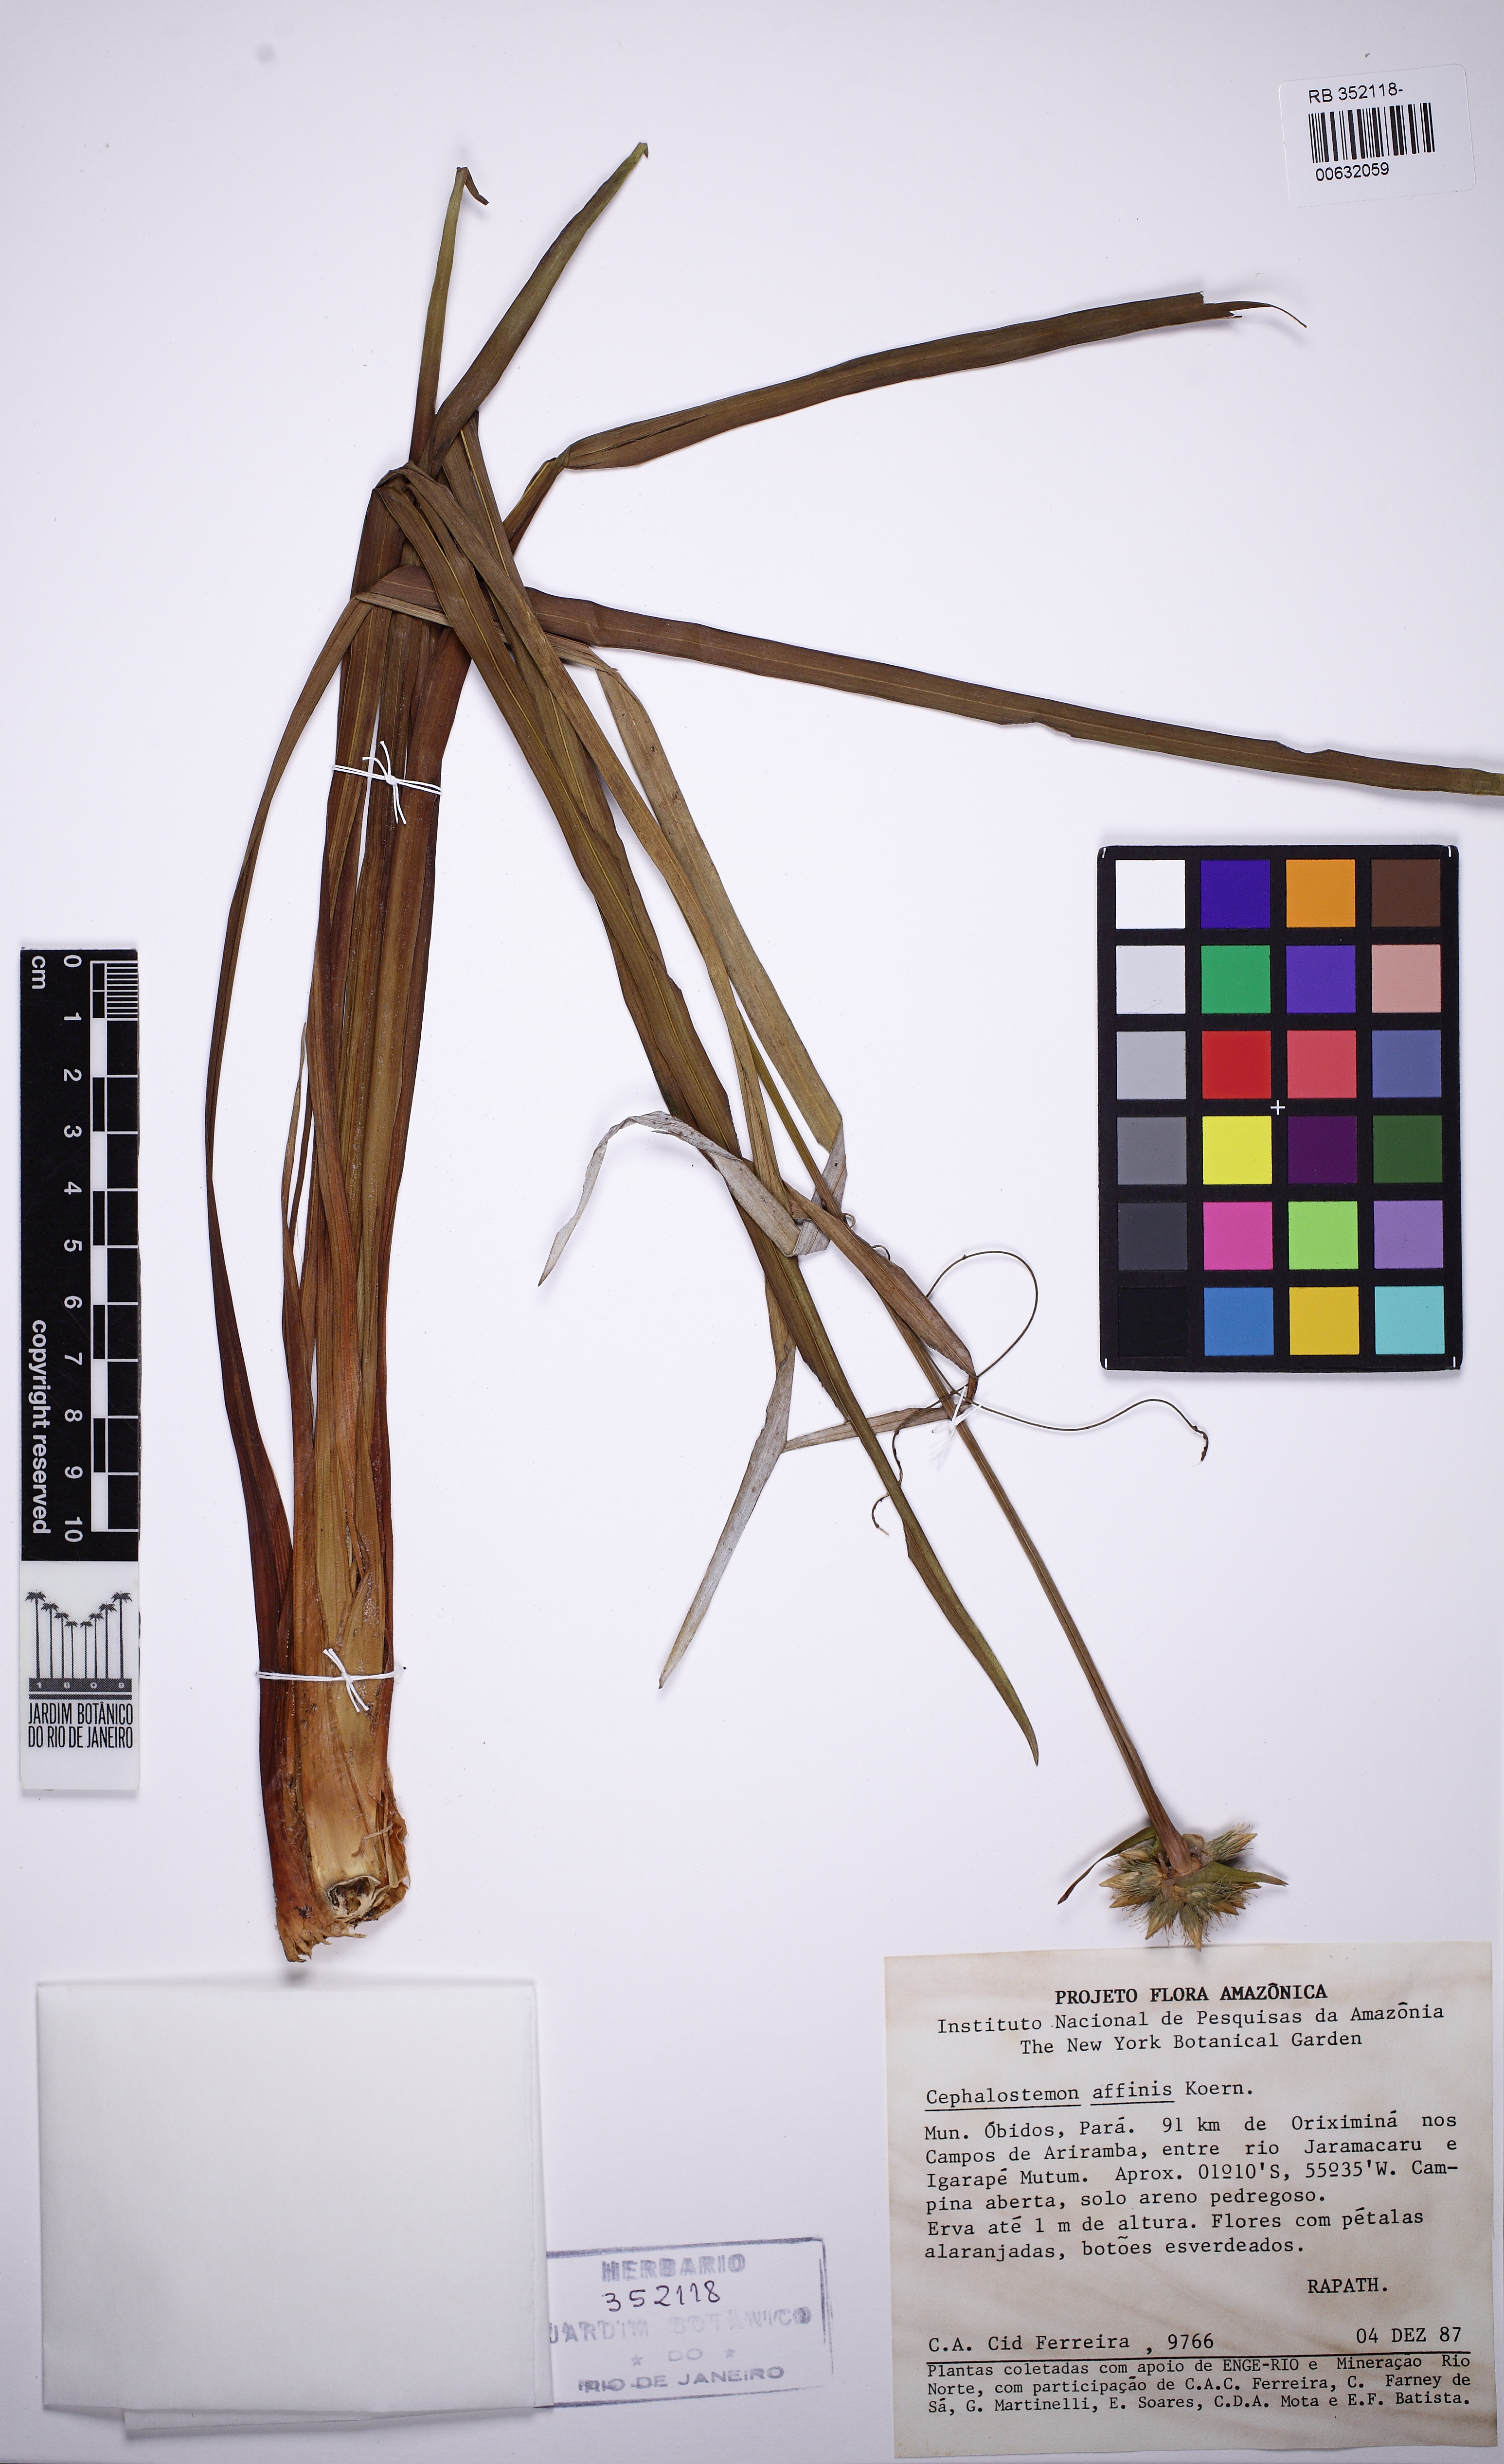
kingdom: Plantae
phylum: Tracheophyta
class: Liliopsida
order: Poales
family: Rapateaceae
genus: Cephalostemon
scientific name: Cephalostemon gracilis
